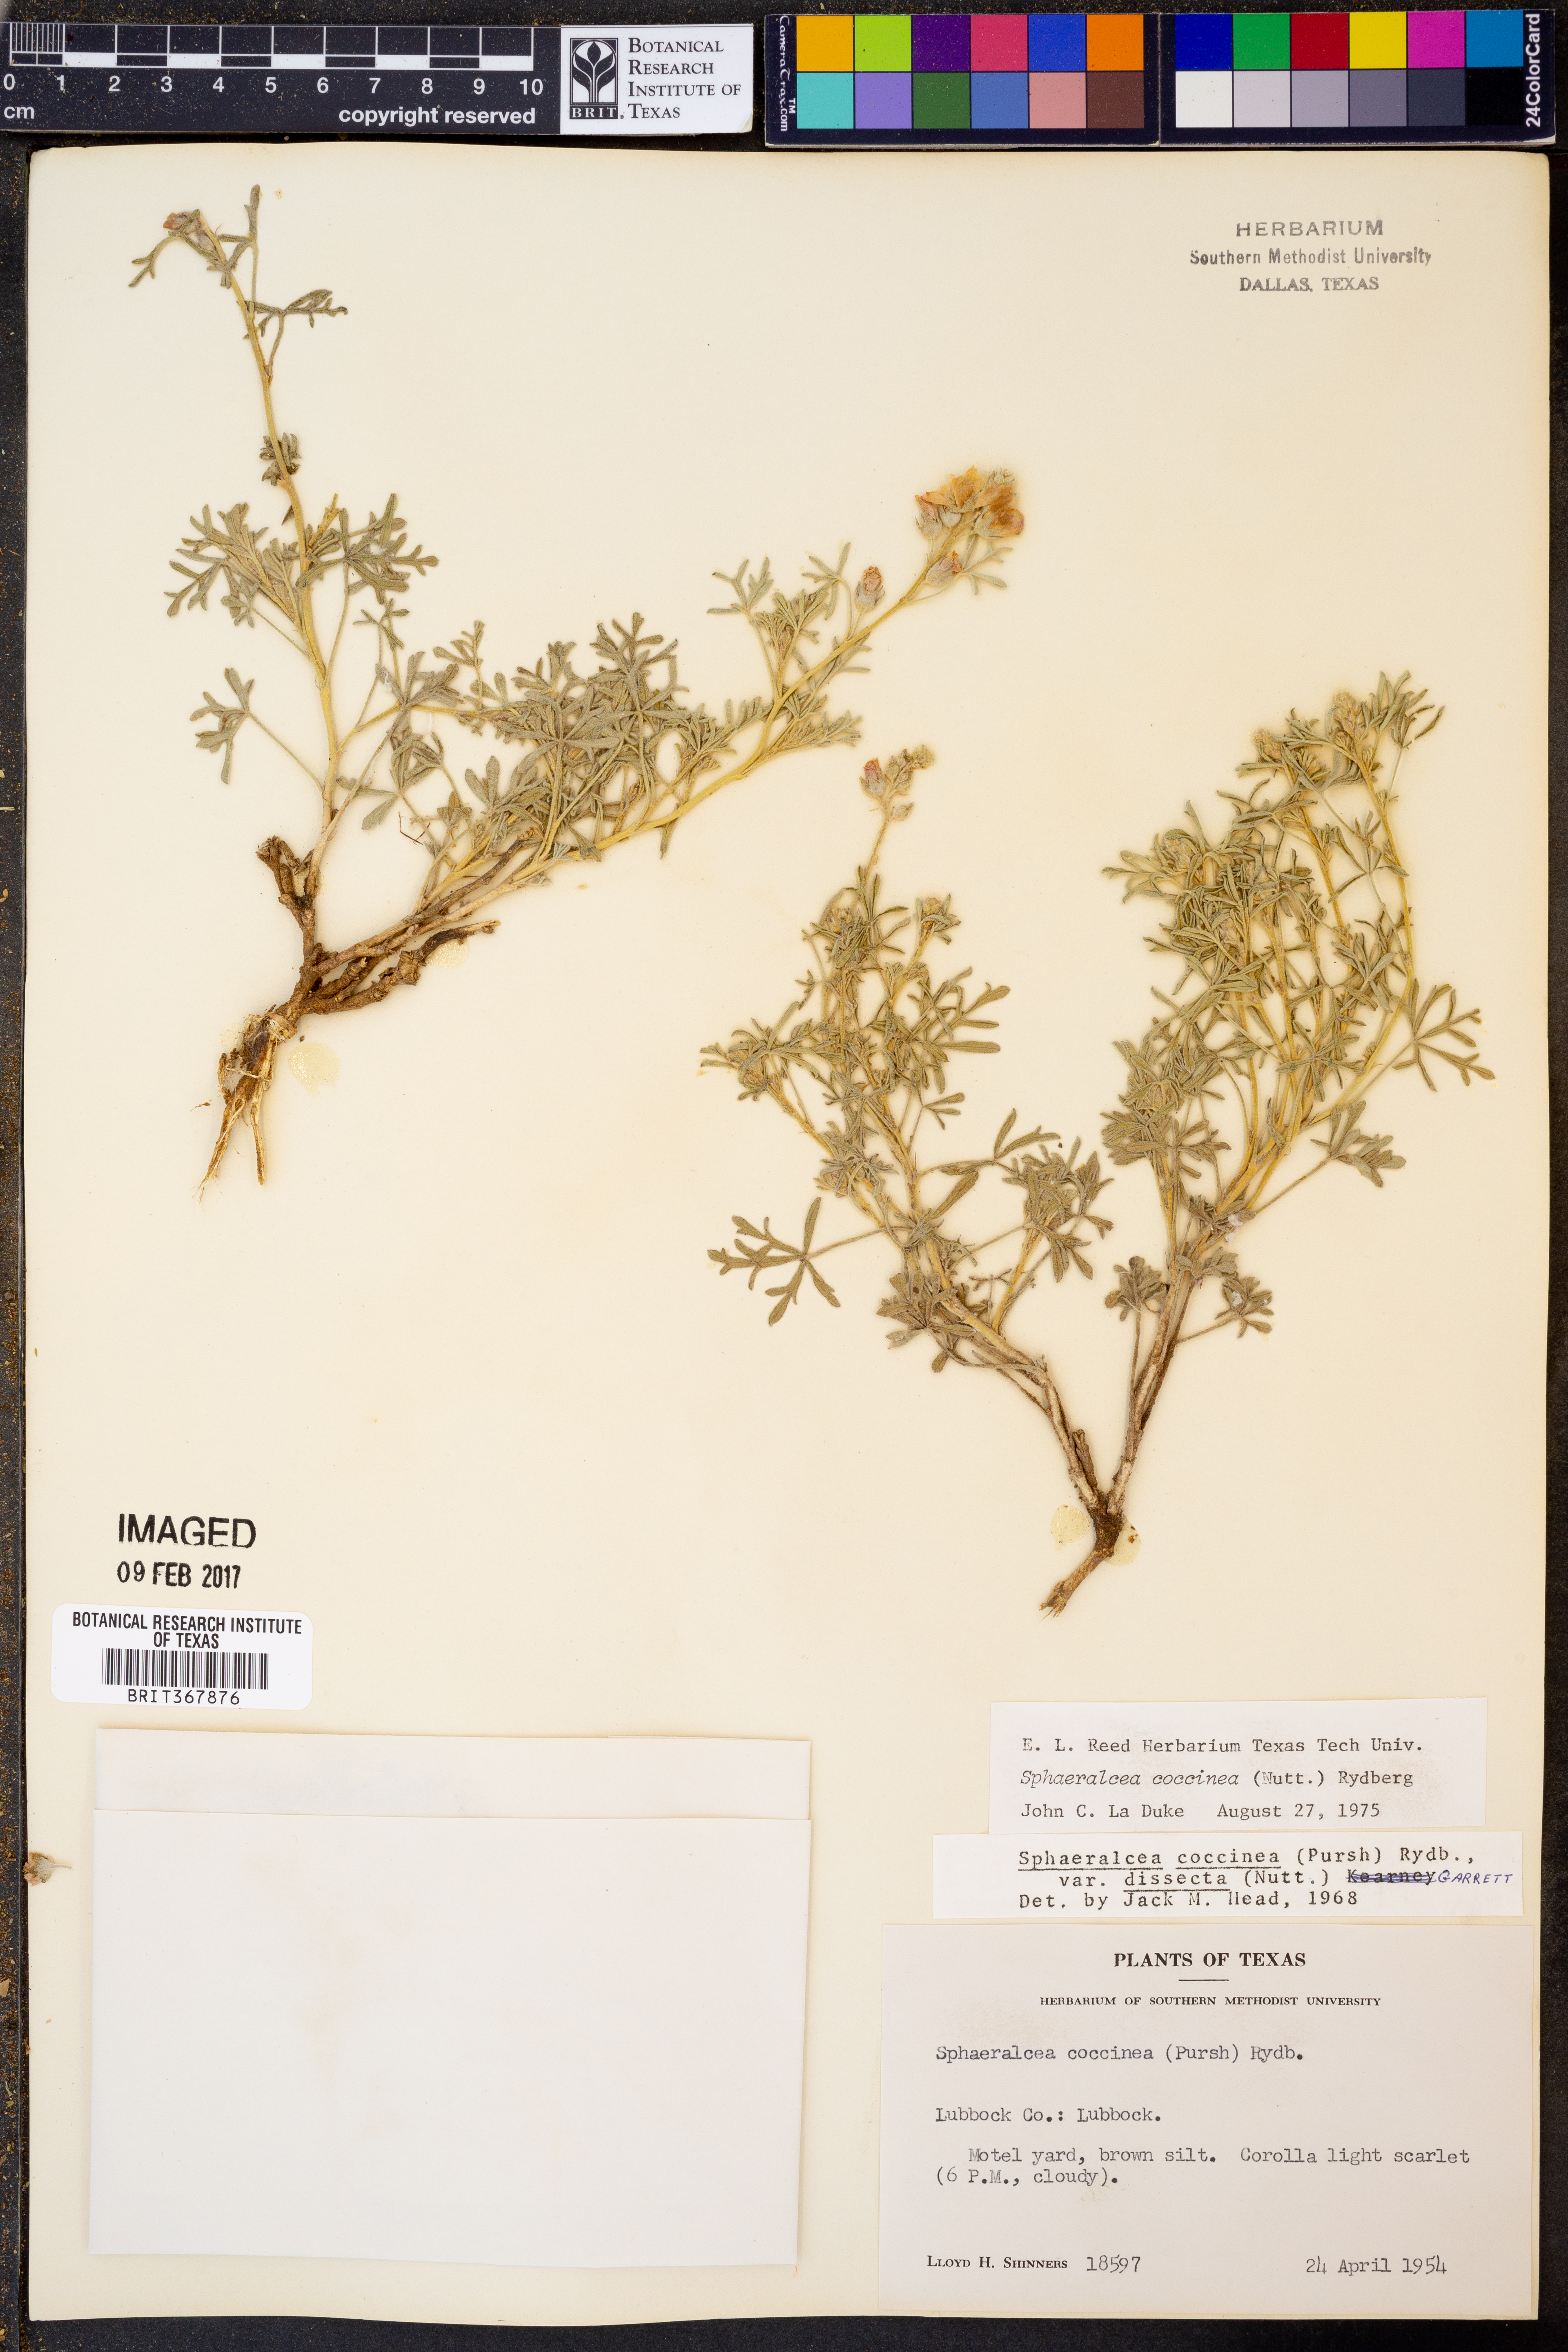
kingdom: Plantae
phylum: Tracheophyta
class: Magnoliopsida
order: Malvales
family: Malvaceae
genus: Sphaeralcea
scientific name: Sphaeralcea coccinea
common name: Moss-rose
